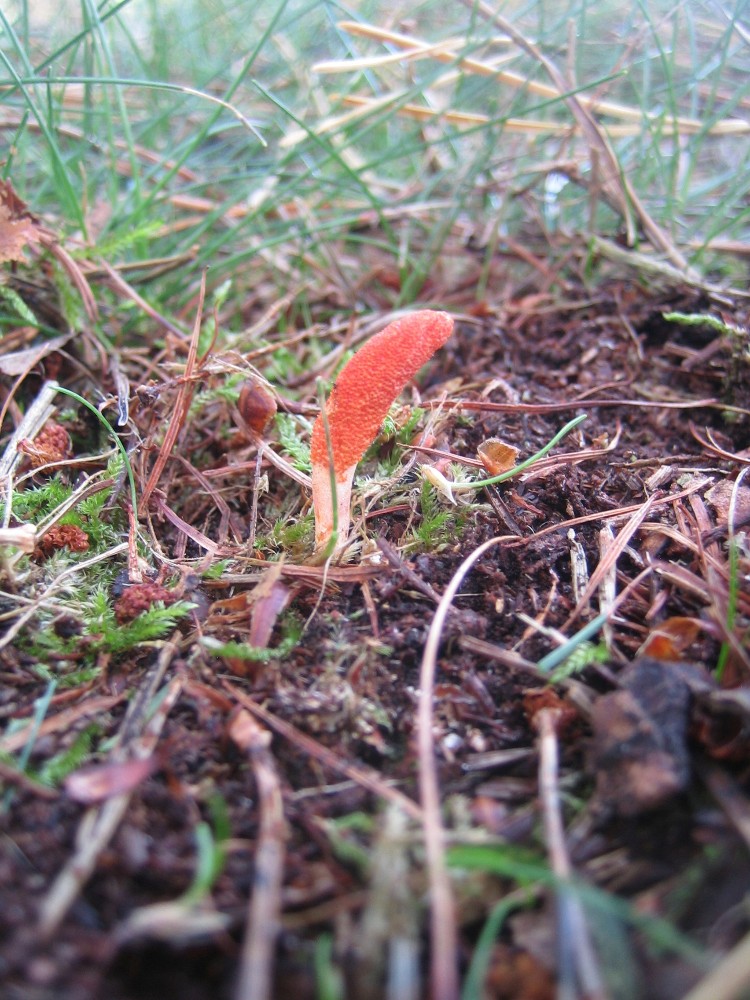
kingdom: Fungi
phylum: Ascomycota
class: Sordariomycetes
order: Hypocreales
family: Cordycipitaceae
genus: Cordyceps
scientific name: Cordyceps militaris
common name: puppe-snyltekølle
